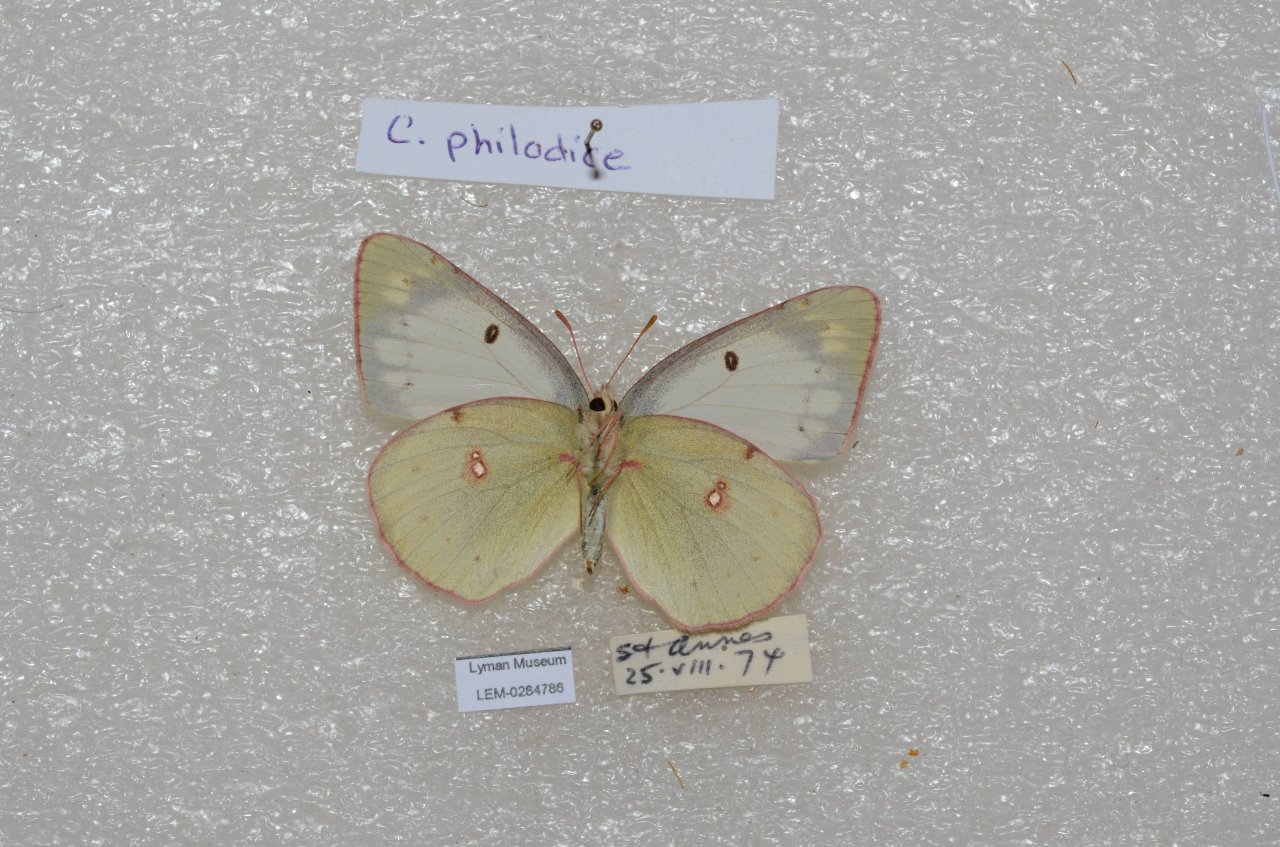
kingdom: Animalia
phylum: Arthropoda
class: Insecta
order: Lepidoptera
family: Pieridae
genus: Colias
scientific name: Colias philodice
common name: Clouded Sulphur
